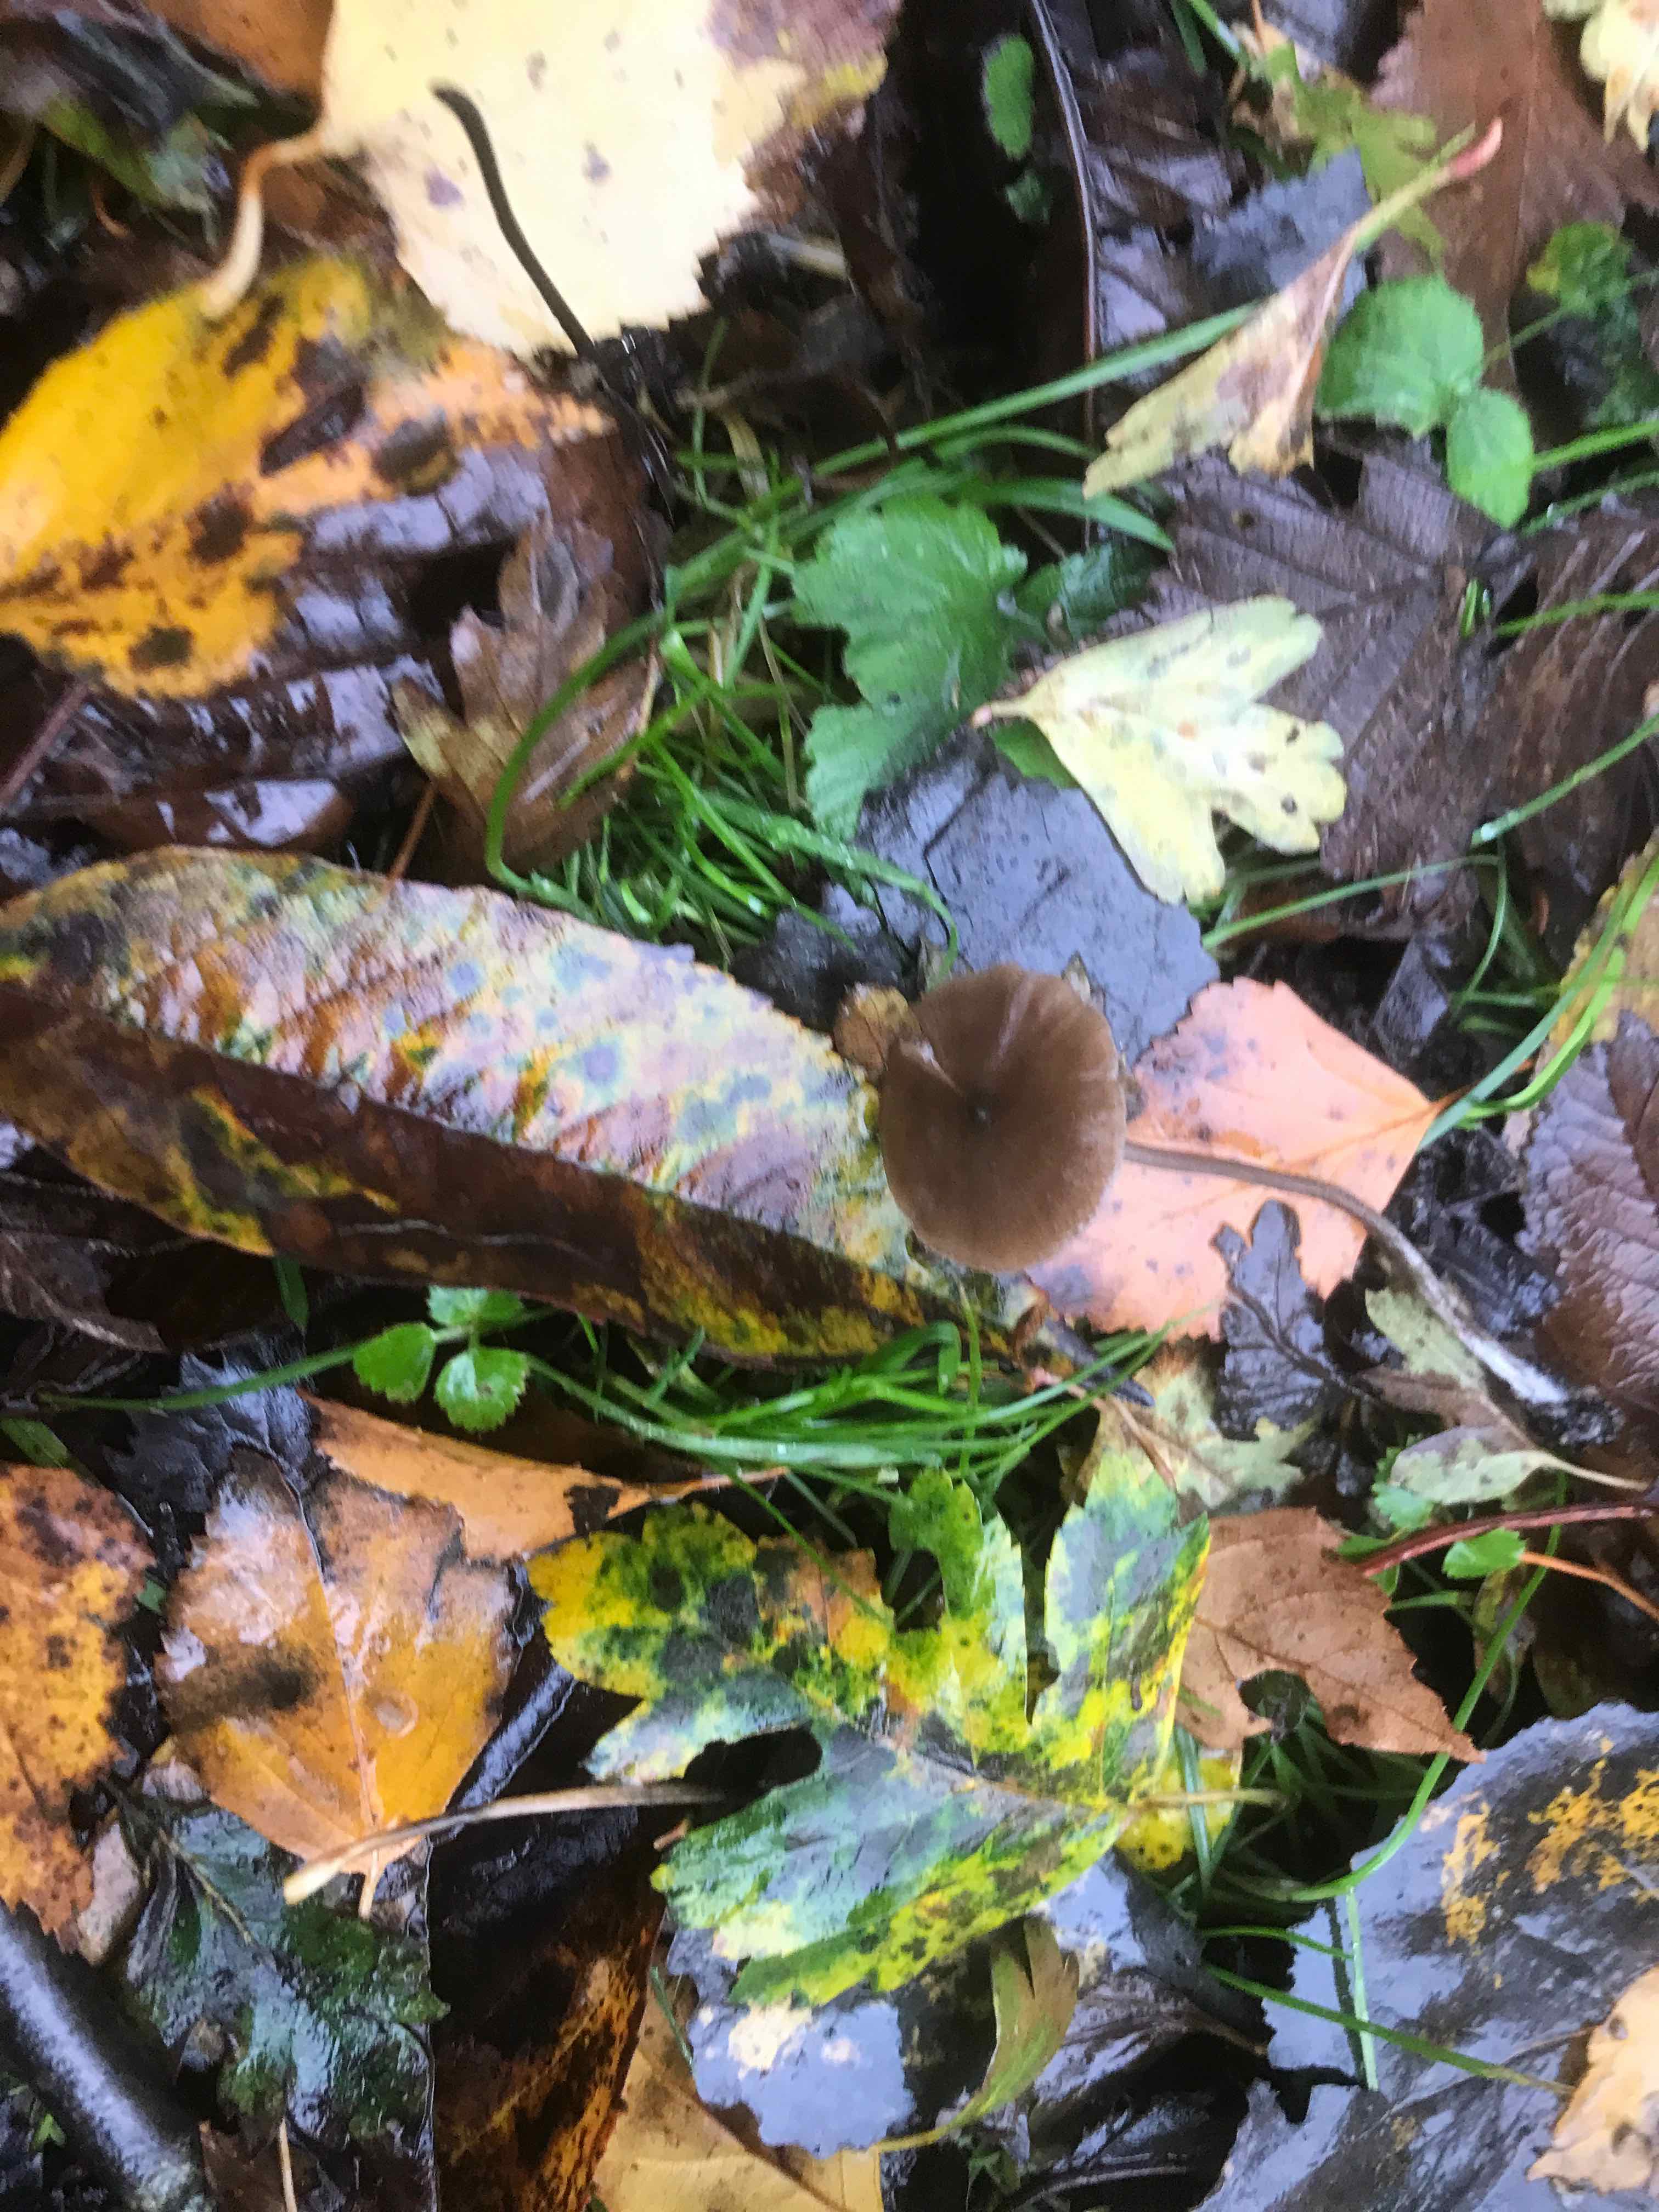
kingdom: Fungi
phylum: Basidiomycota
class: Agaricomycetes
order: Agaricales
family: Entolomataceae
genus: Entoloma
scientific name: Entoloma
